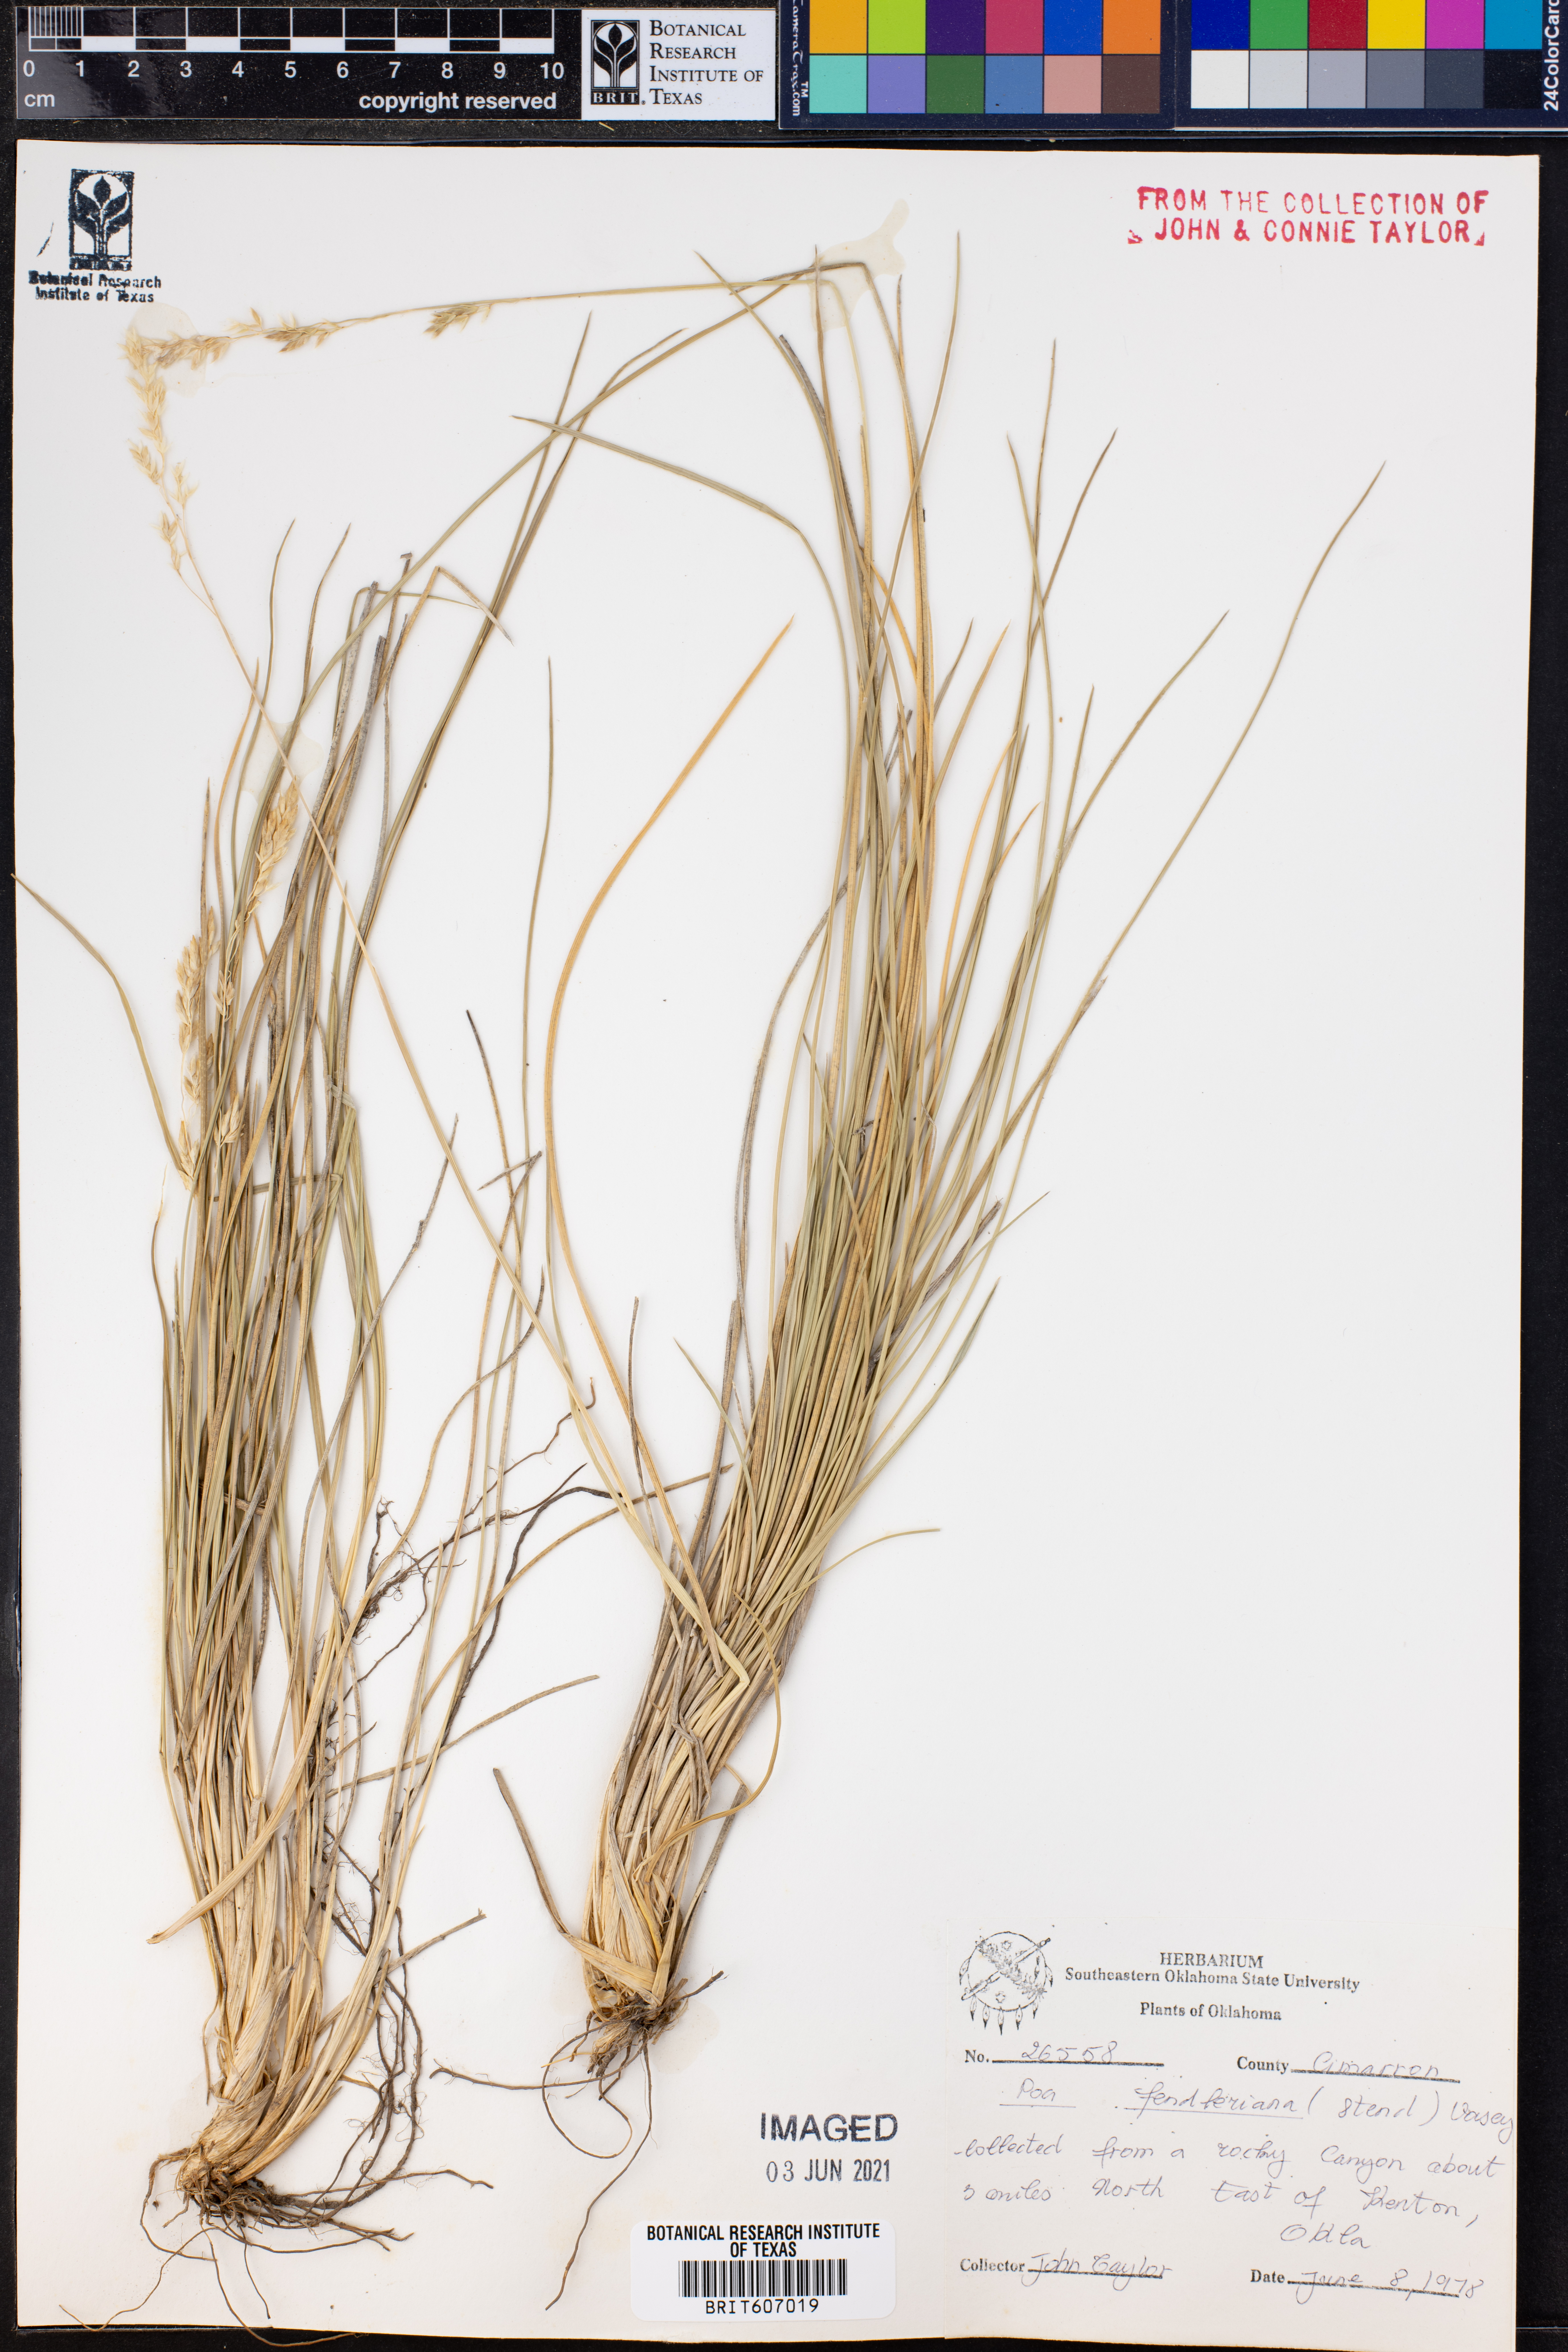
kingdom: Plantae
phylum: Tracheophyta
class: Liliopsida
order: Poales
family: Poaceae
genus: Poa
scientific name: Poa fendleriana
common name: Mutton bluegrass
